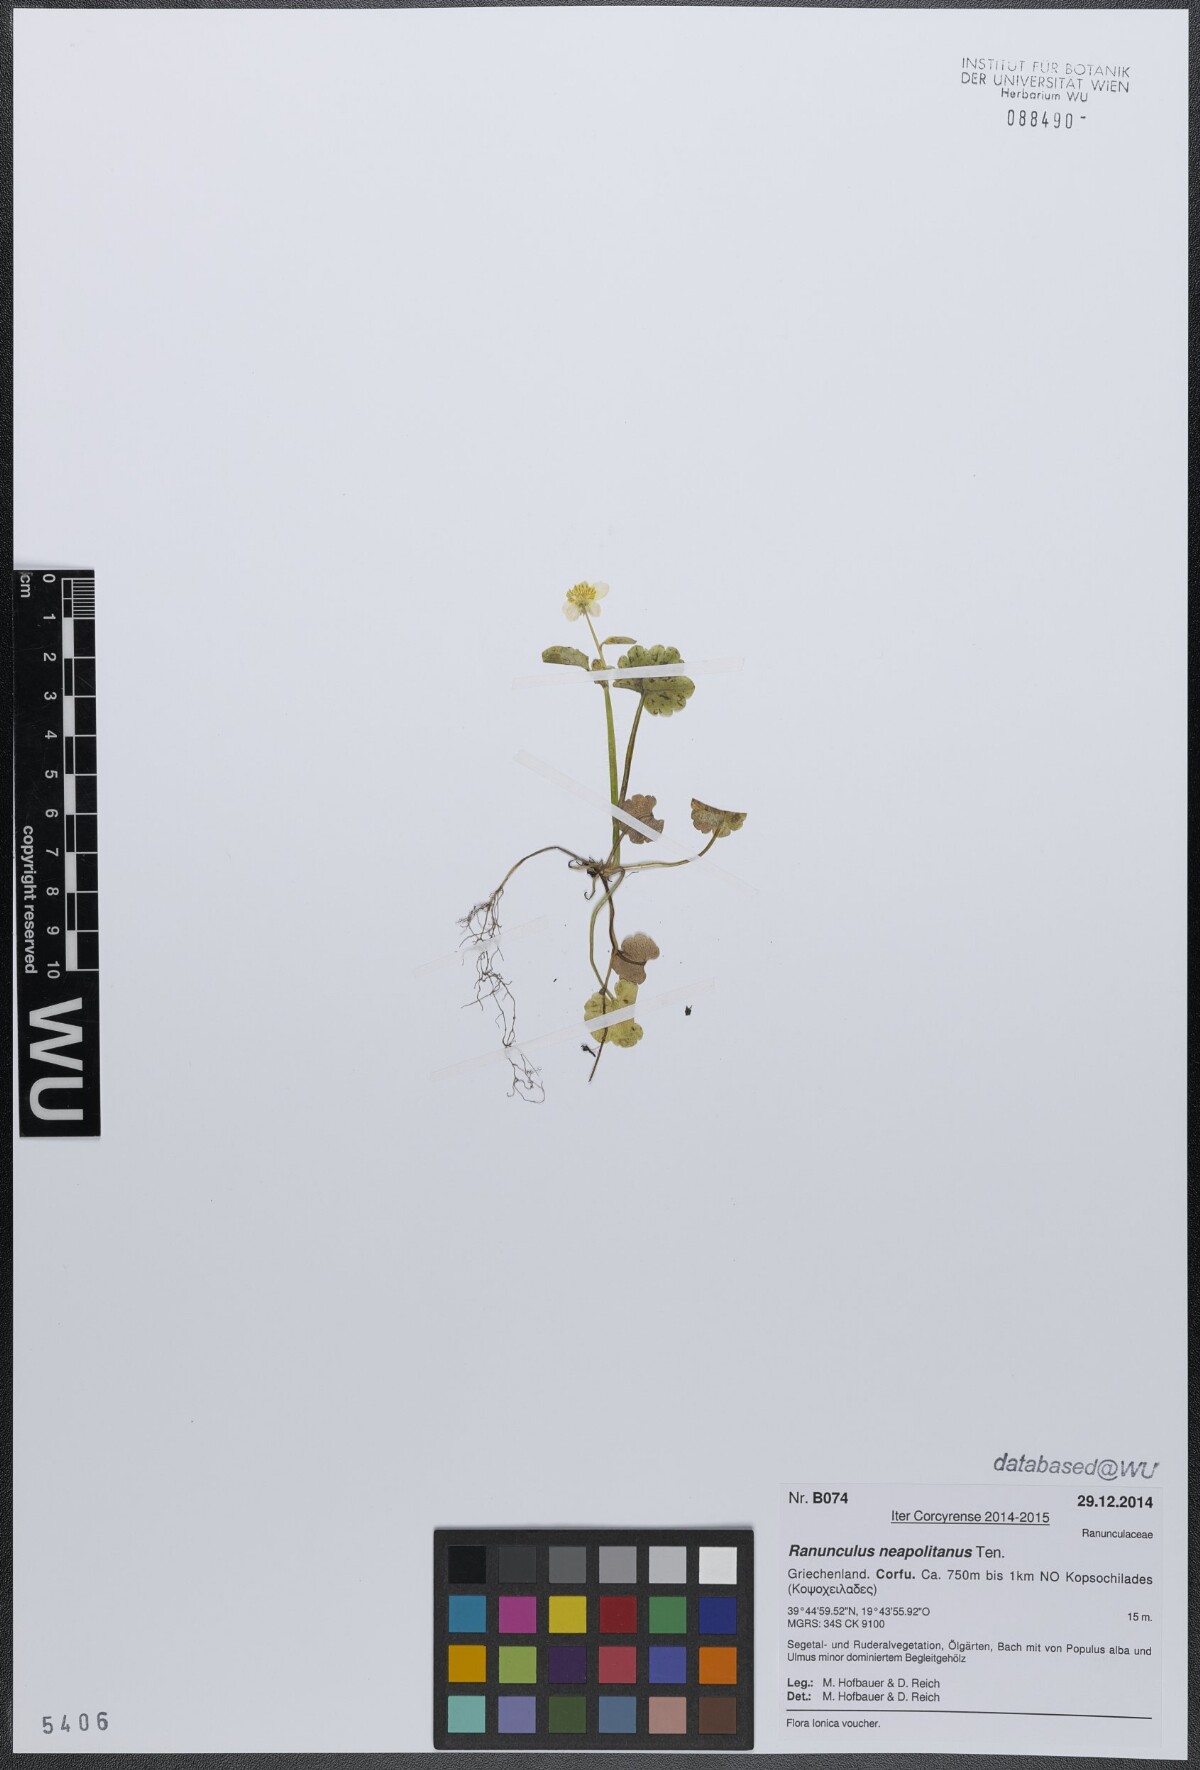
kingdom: Plantae
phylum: Tracheophyta
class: Magnoliopsida
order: Ranunculales
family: Ranunculaceae
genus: Ranunculus
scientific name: Ranunculus neapolitanus
